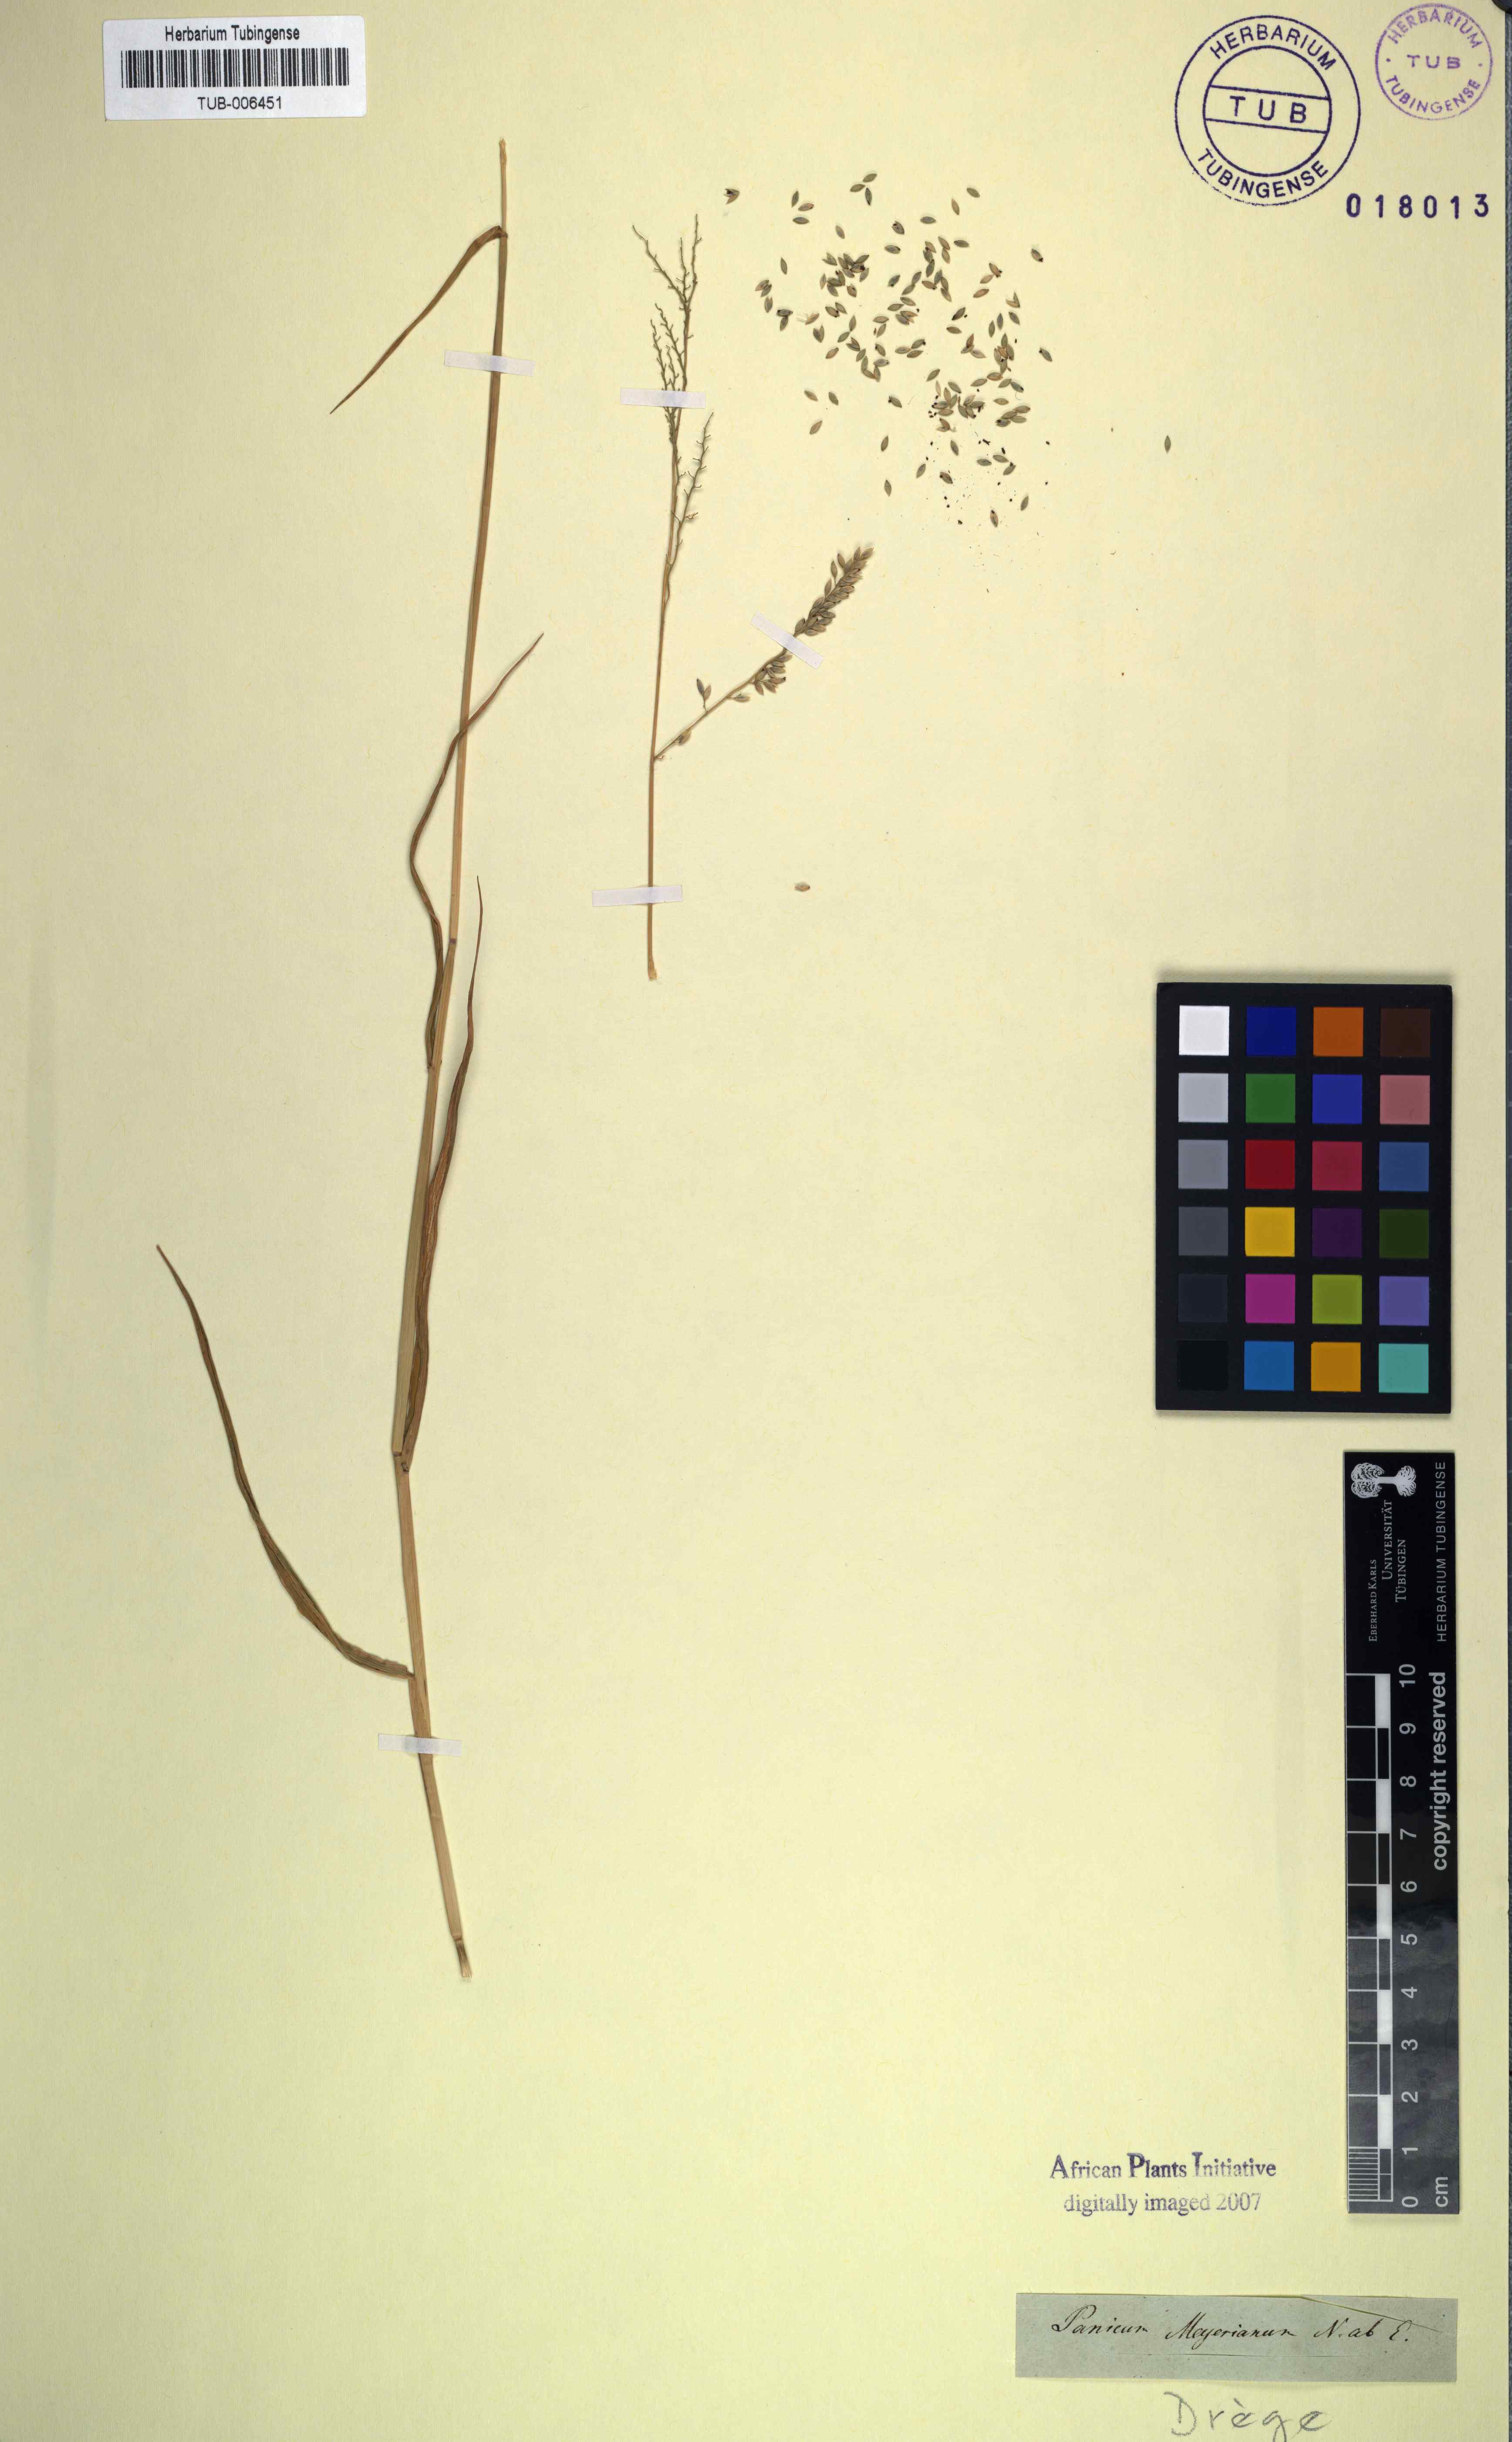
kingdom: Plantae
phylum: Tracheophyta
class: Liliopsida
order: Poales
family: Poaceae
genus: Eriochloa
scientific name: Eriochloa meyeriana
